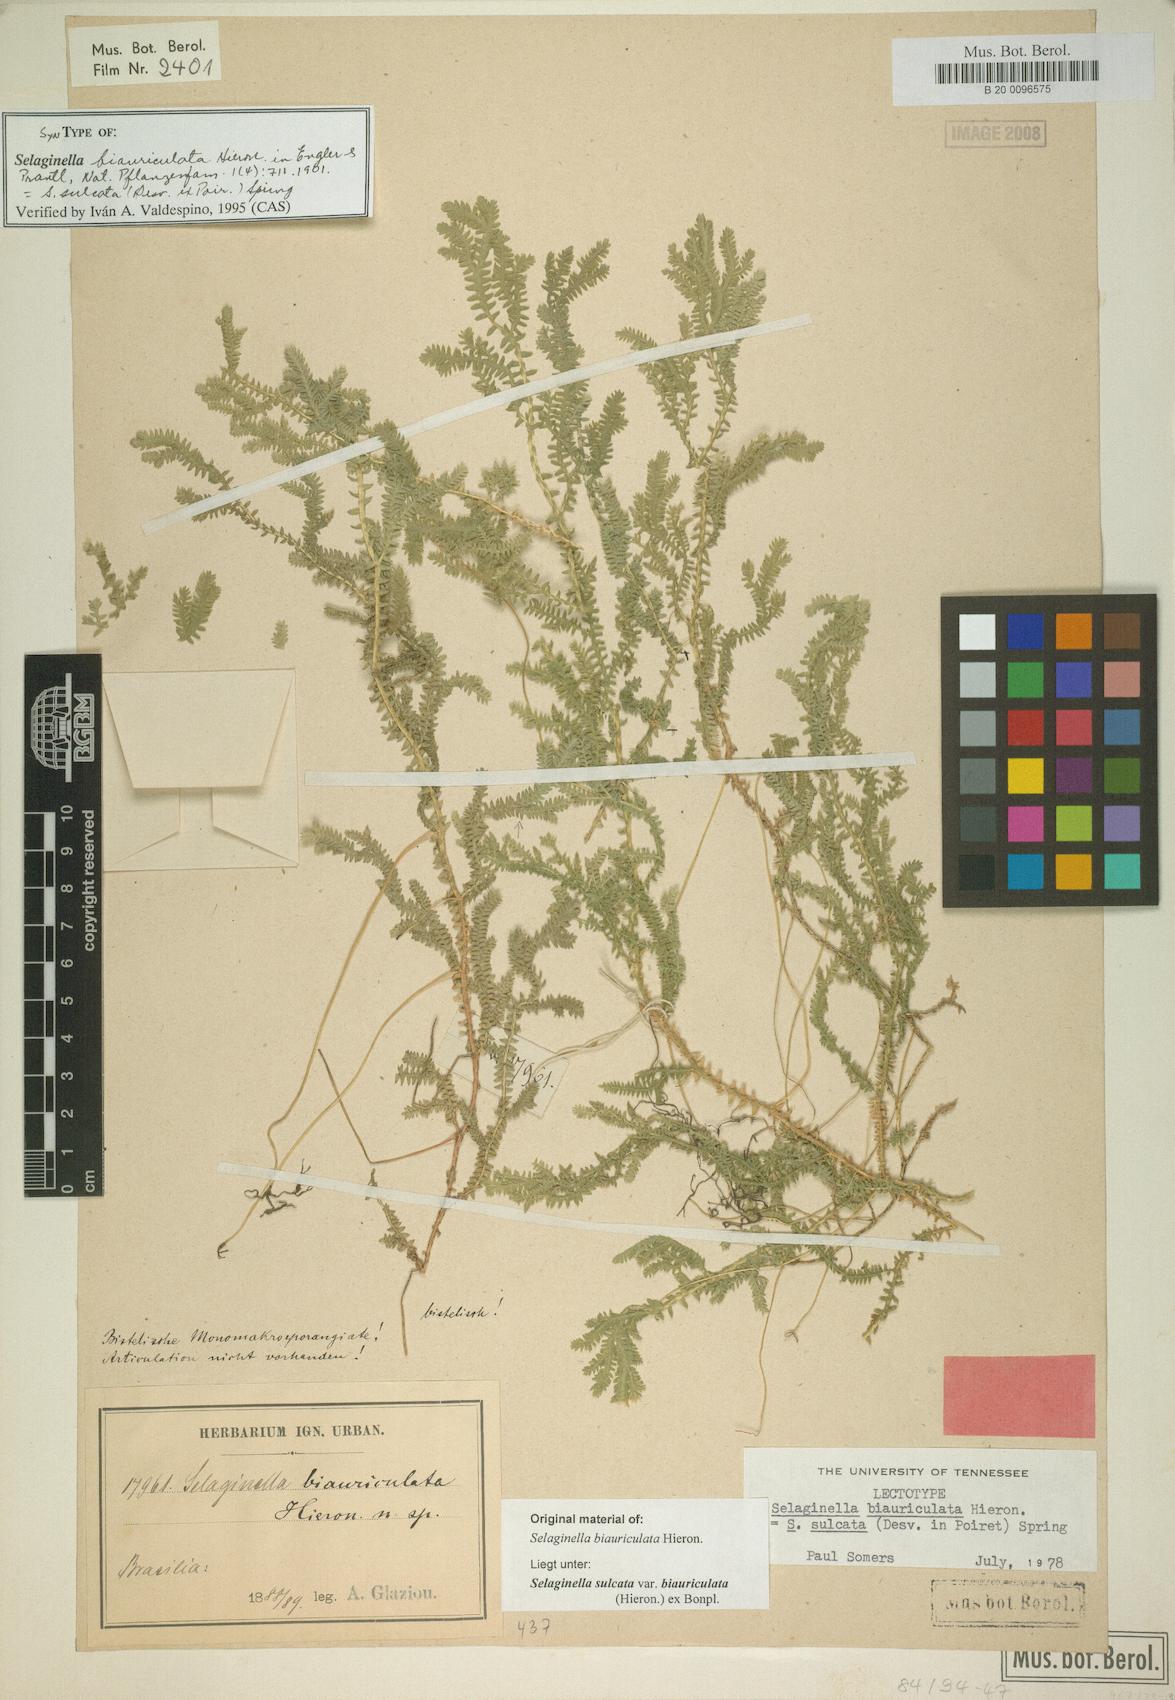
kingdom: Plantae
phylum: Tracheophyta
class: Lycopodiopsida
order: Selaginellales
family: Selaginellaceae
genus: Selaginella
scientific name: Selaginella sulcata
